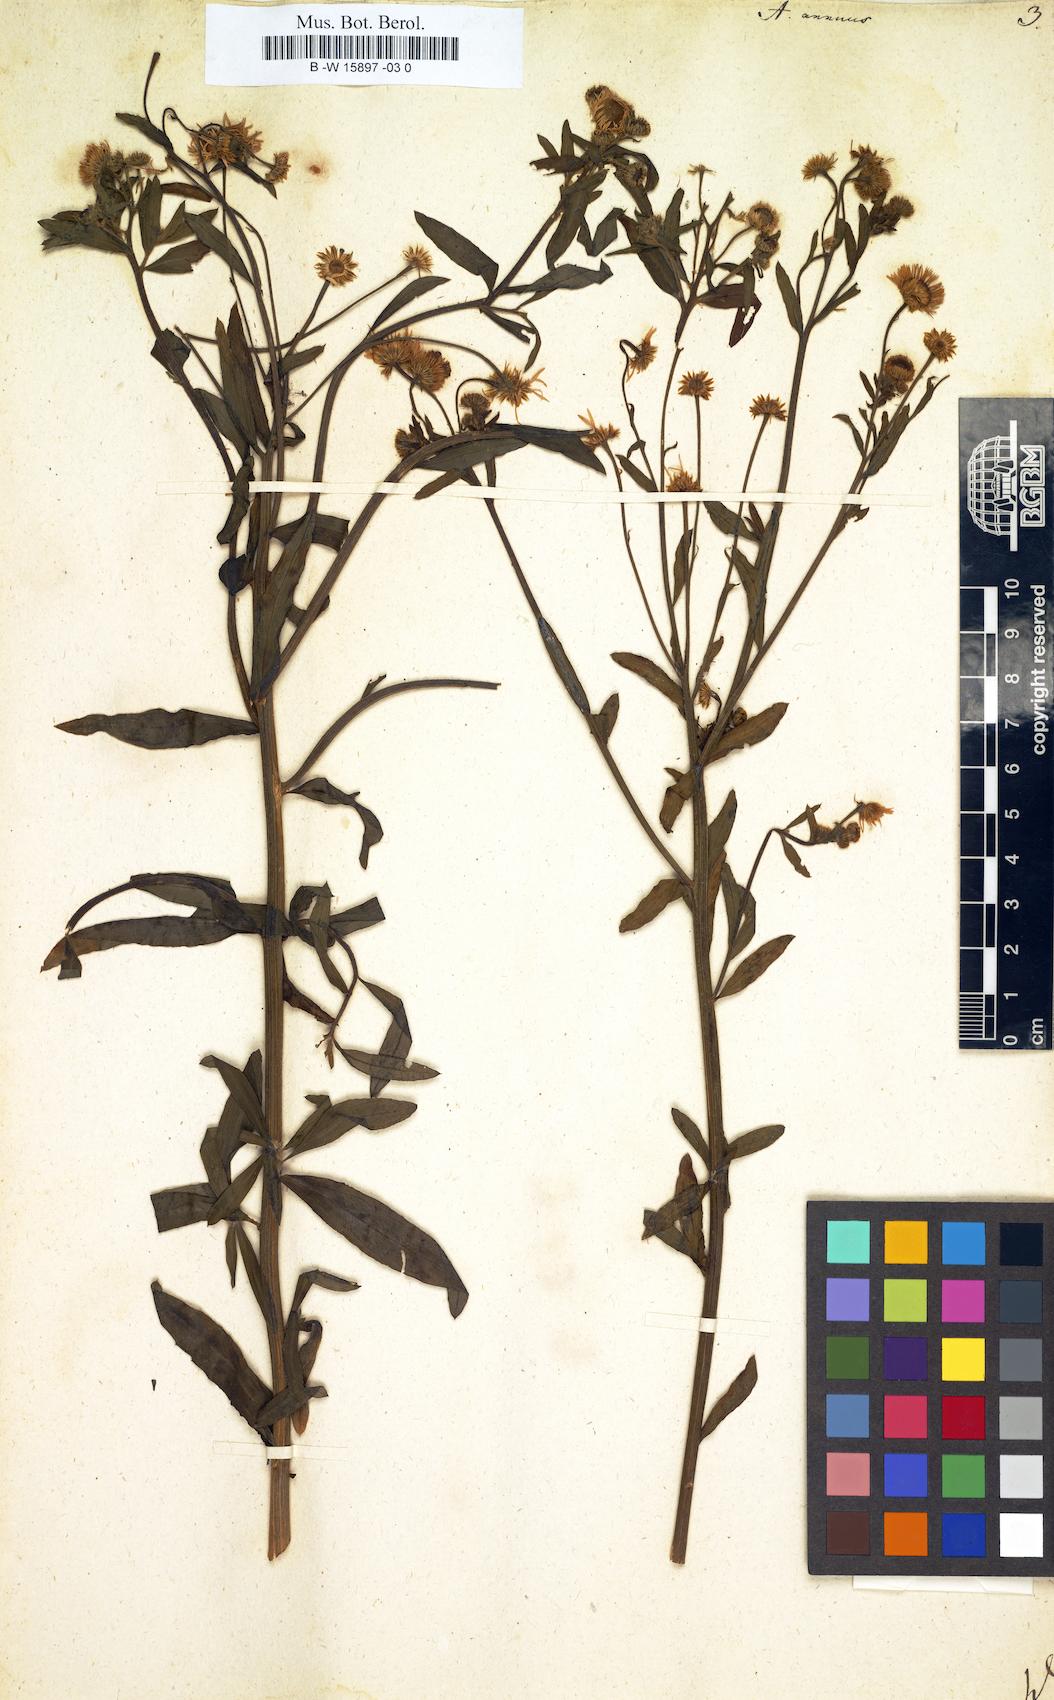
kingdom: Plantae
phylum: Tracheophyta
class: Magnoliopsida
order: Asterales
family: Asteraceae
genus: Erigeron
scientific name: Erigeron annuus
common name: Tall fleabane
